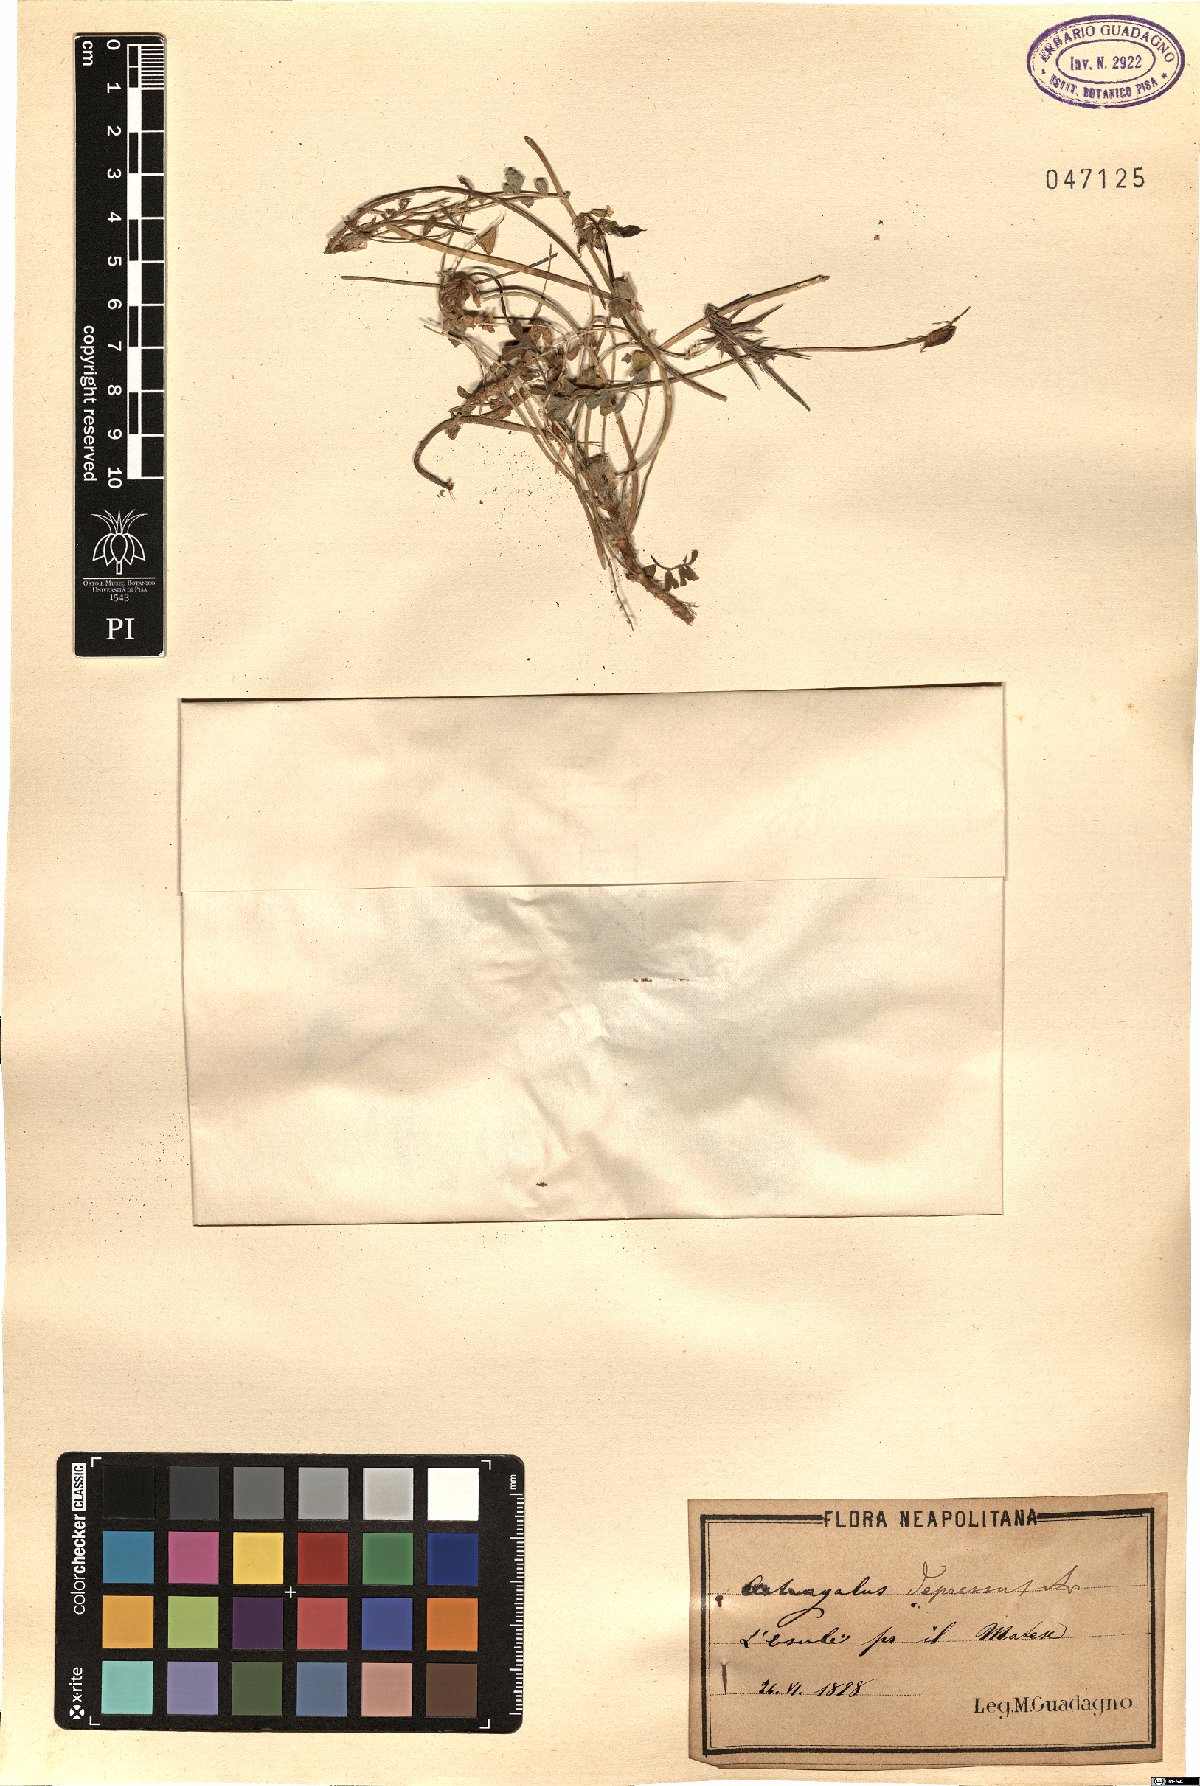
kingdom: Plantae
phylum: Tracheophyta
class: Magnoliopsida
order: Fabales
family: Fabaceae
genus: Astragalus
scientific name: Astragalus depressus
